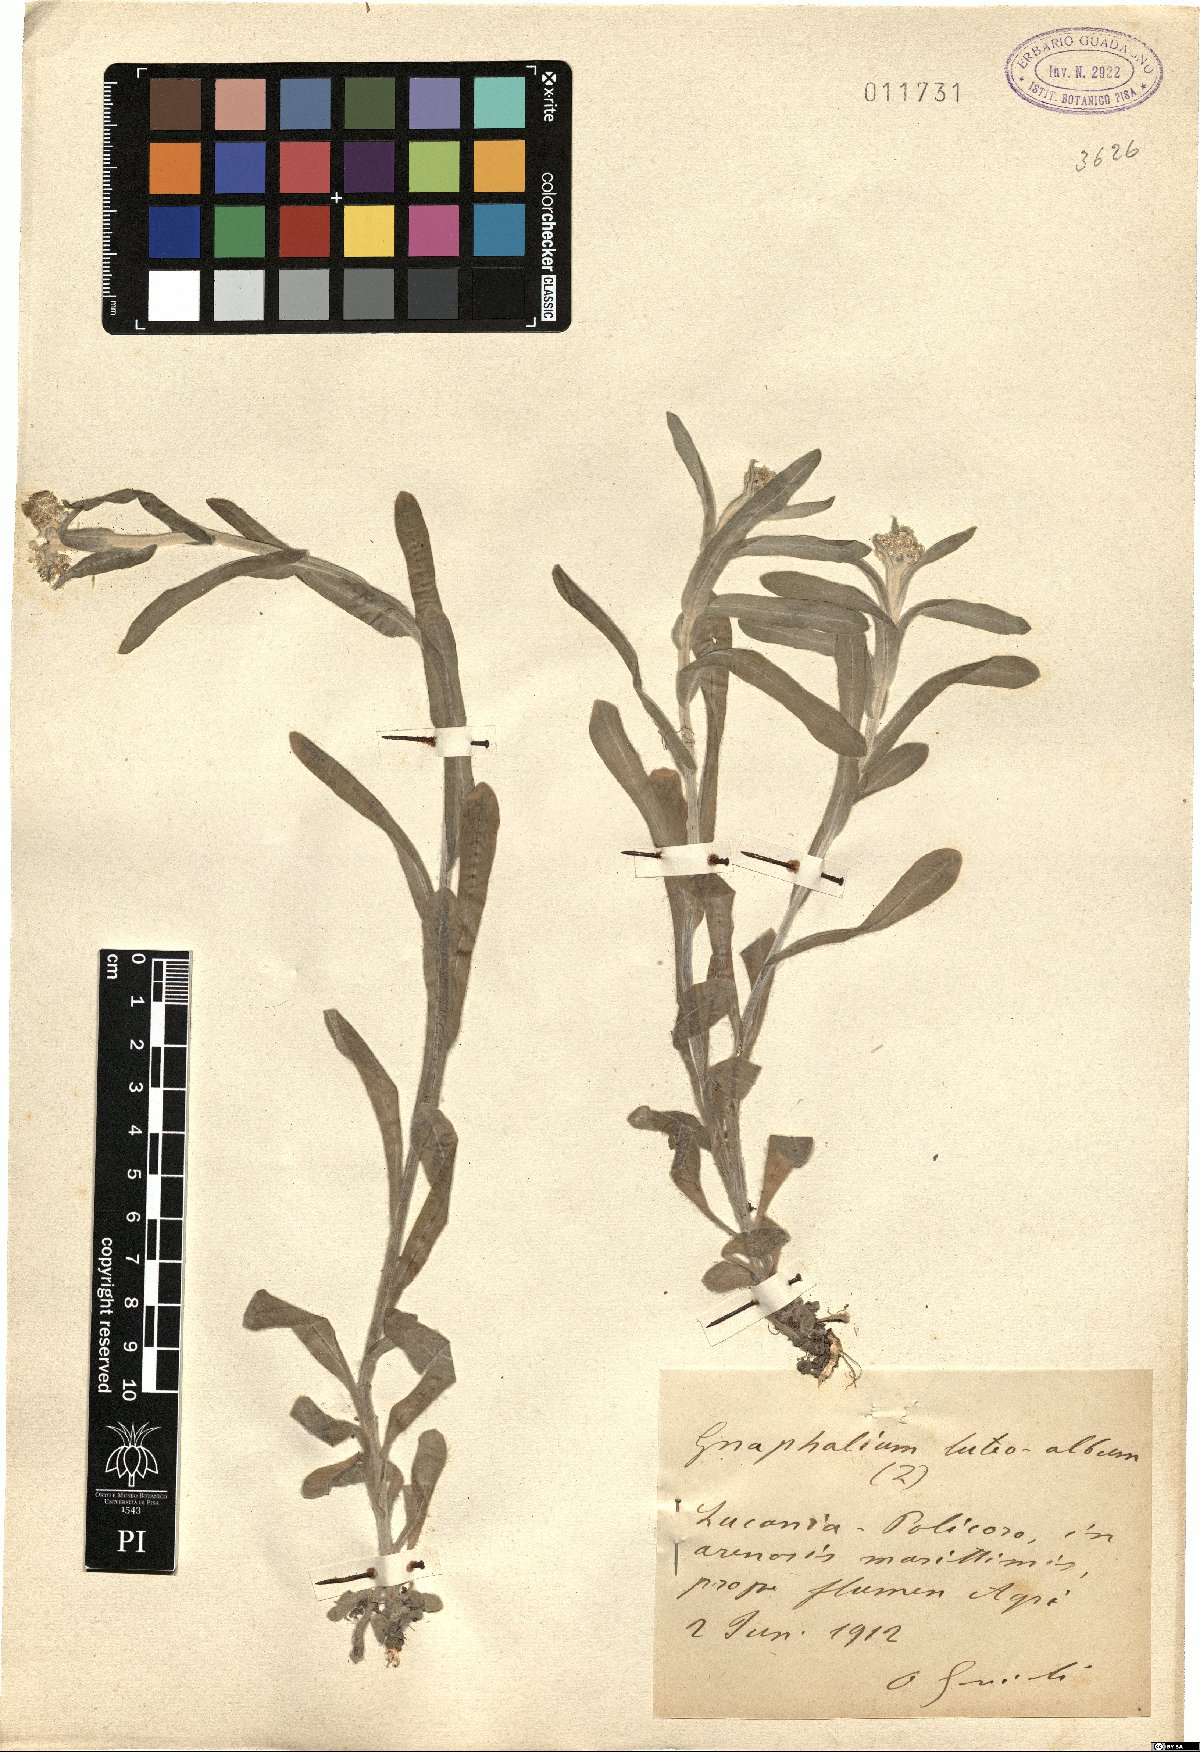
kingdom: Plantae
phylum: Tracheophyta
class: Magnoliopsida
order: Asterales
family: Asteraceae
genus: Helichrysum
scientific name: Helichrysum luteoalbum
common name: Daisy
